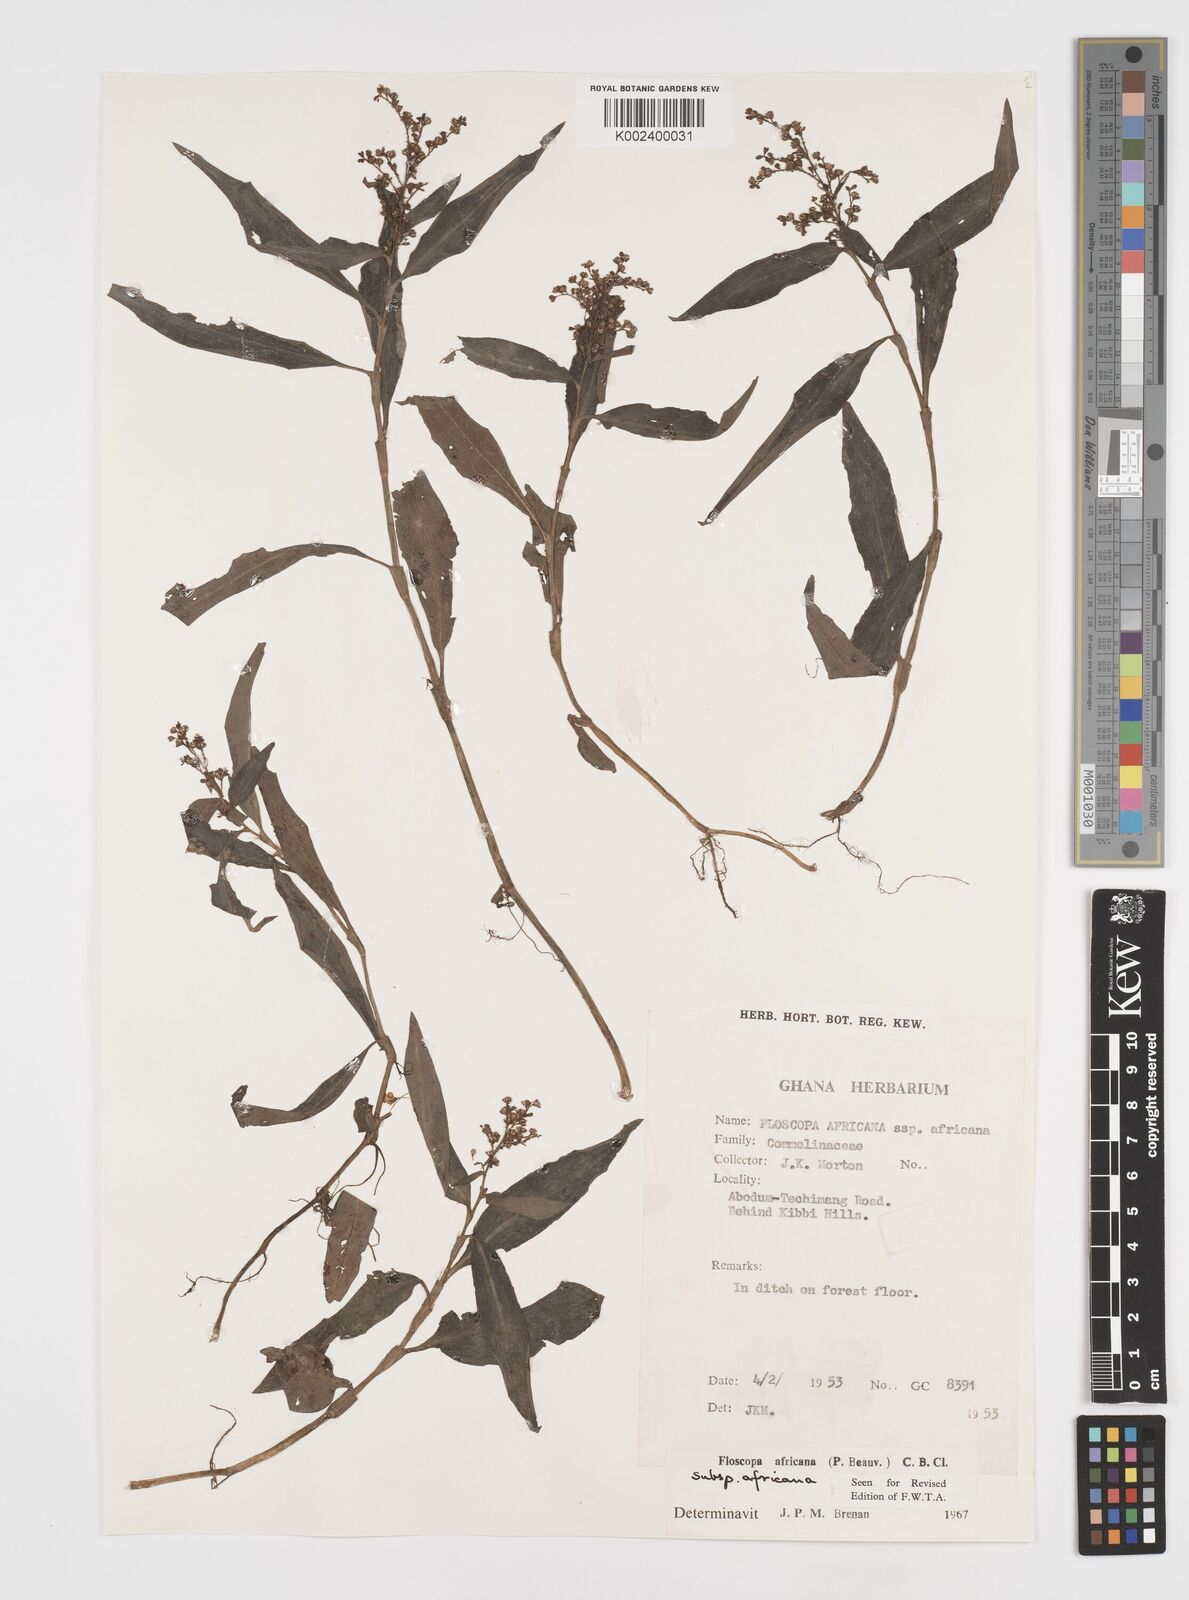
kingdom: Plantae
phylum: Tracheophyta
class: Liliopsida
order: Commelinales
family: Commelinaceae
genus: Floscopa
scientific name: Floscopa africana
